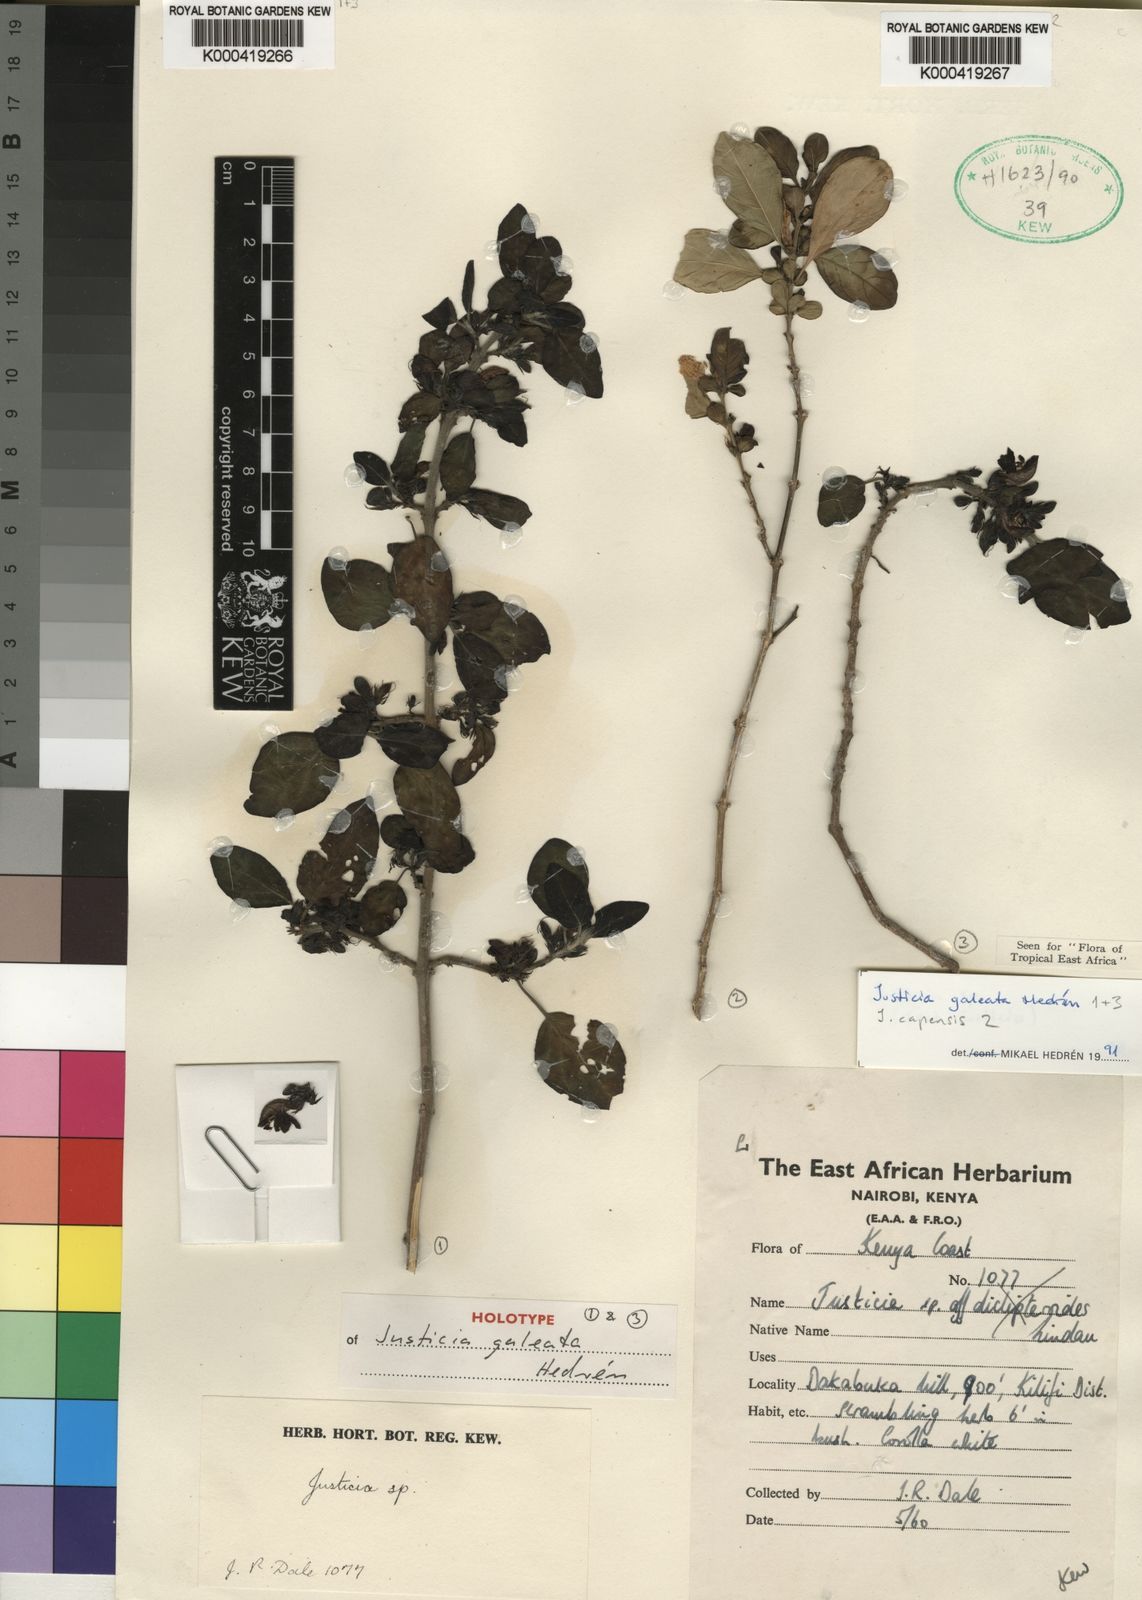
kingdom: Plantae
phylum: Tracheophyta
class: Magnoliopsida
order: Lamiales
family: Acanthaceae
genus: Justicia
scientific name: Justicia
